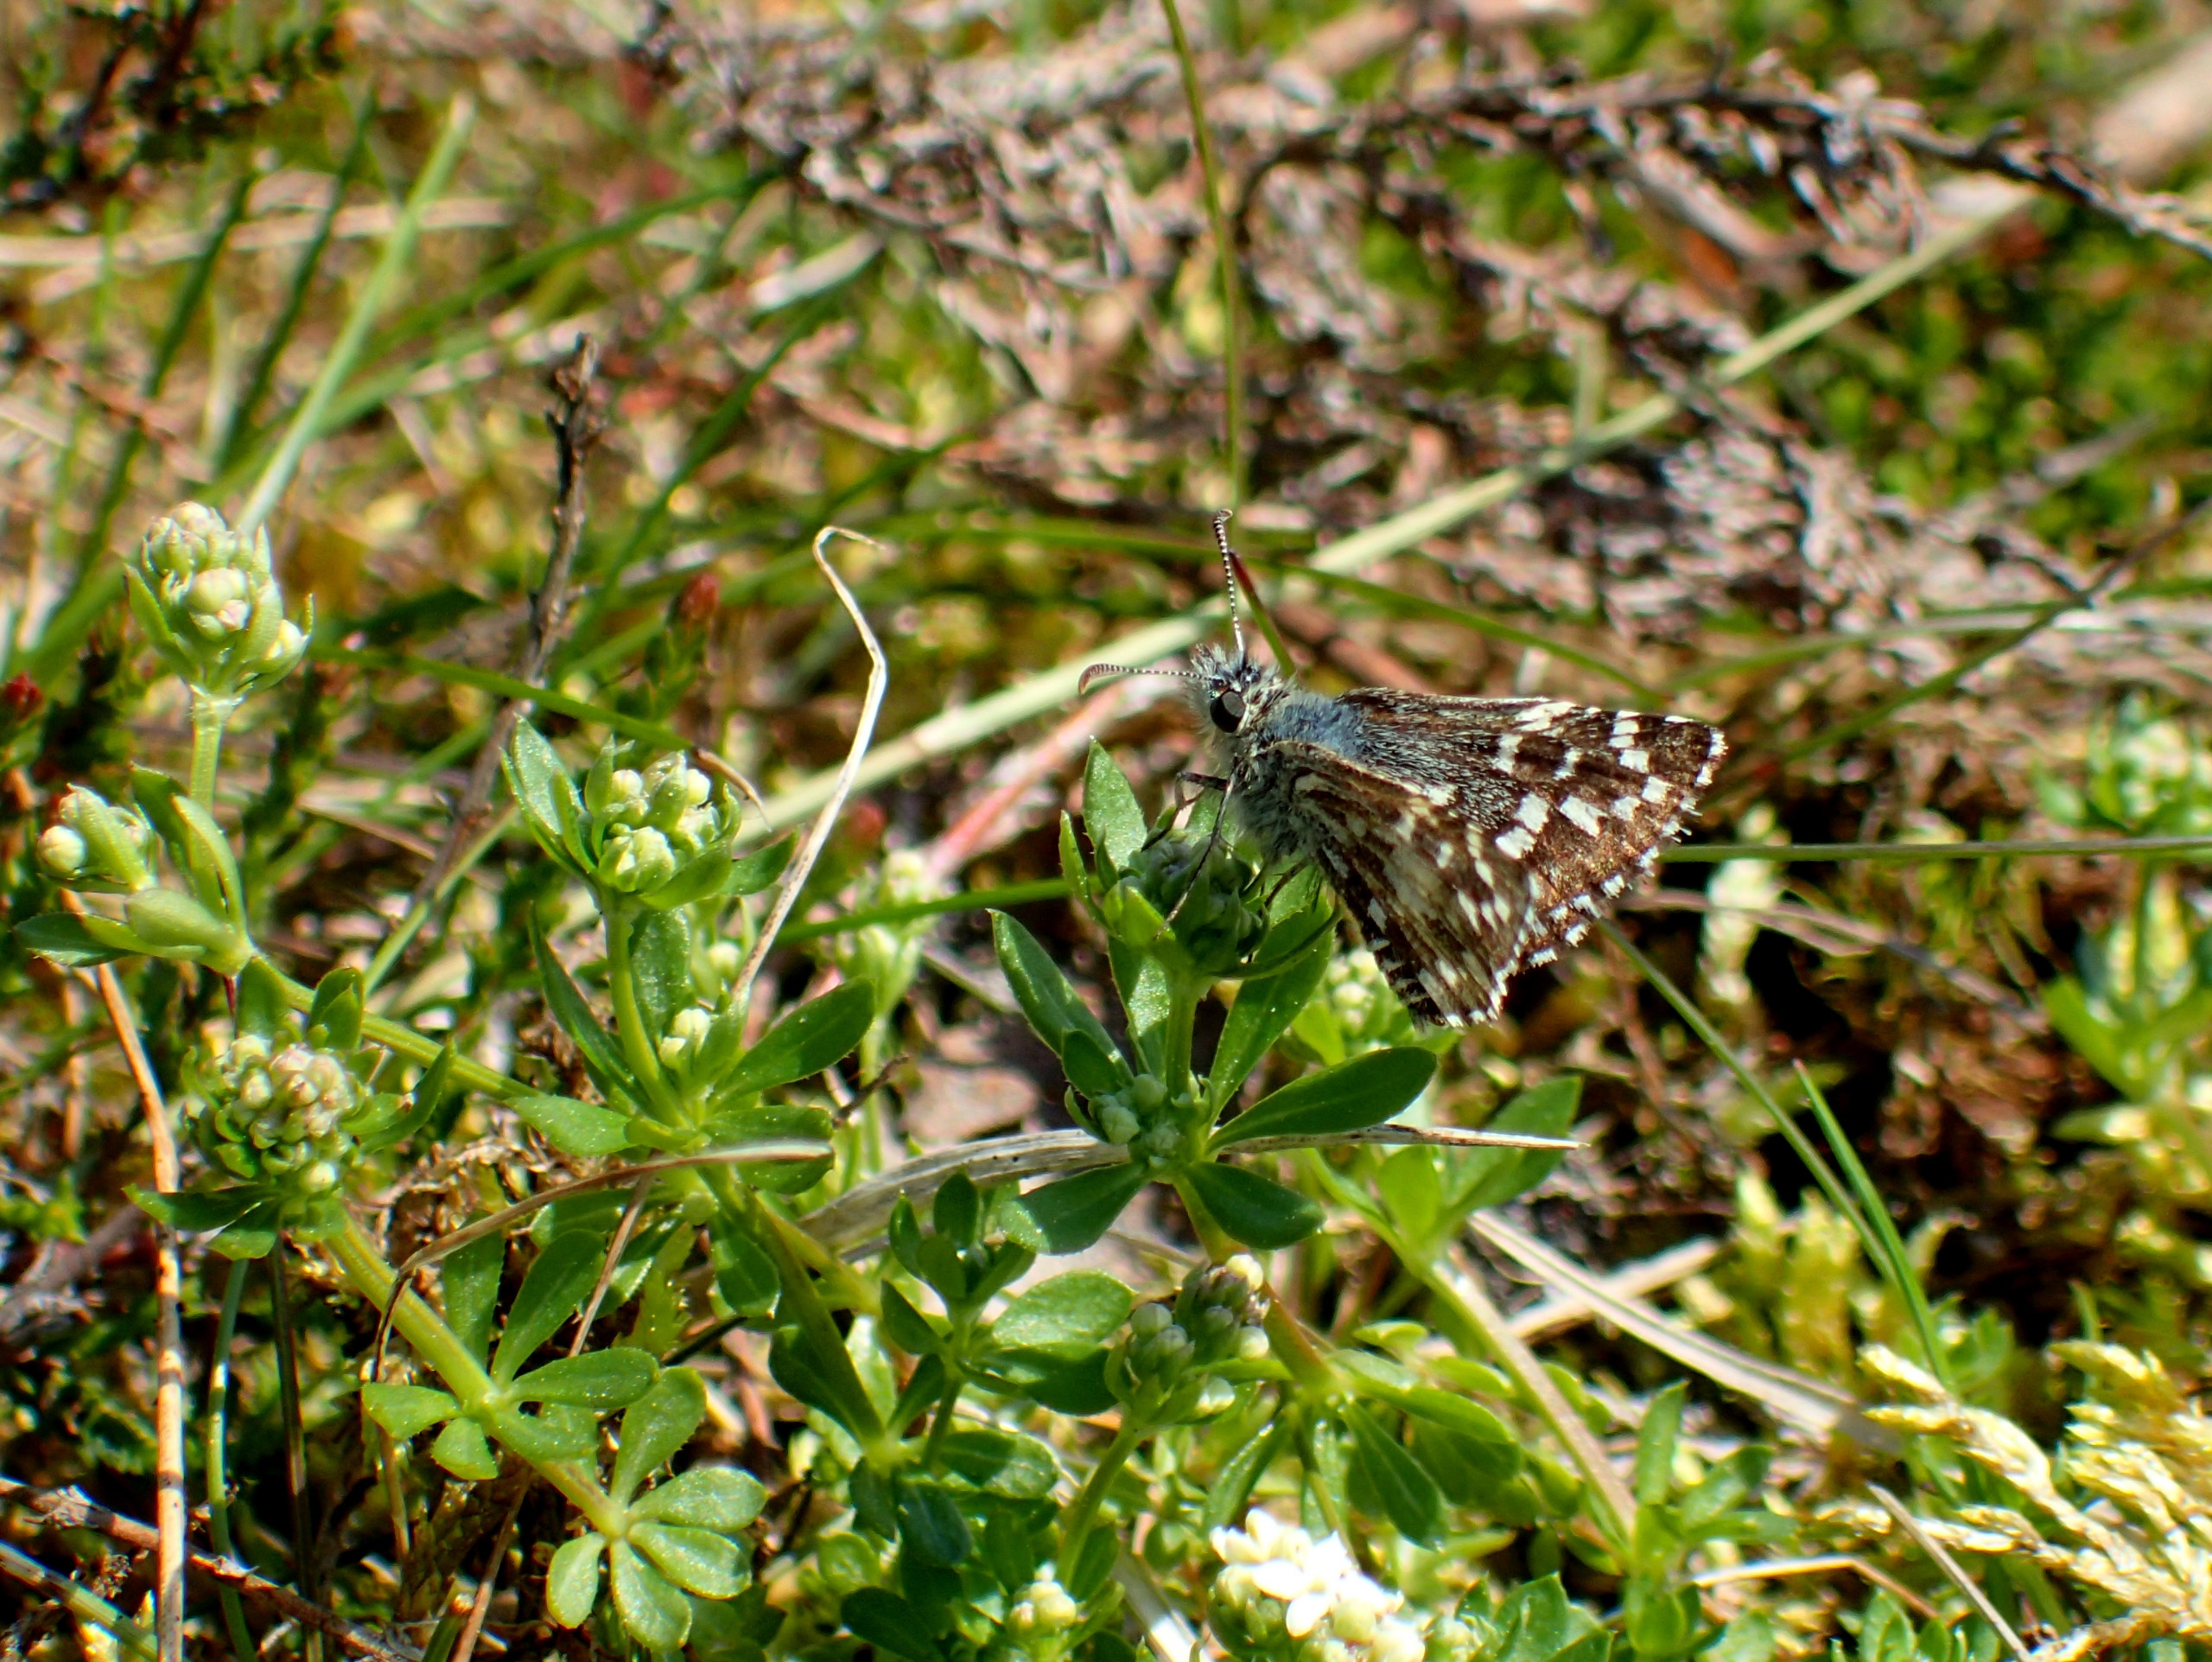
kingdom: Animalia
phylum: Arthropoda
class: Insecta
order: Lepidoptera
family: Hesperiidae
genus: Pyrgus
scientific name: Pyrgus malvae
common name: Spættet bredpande
